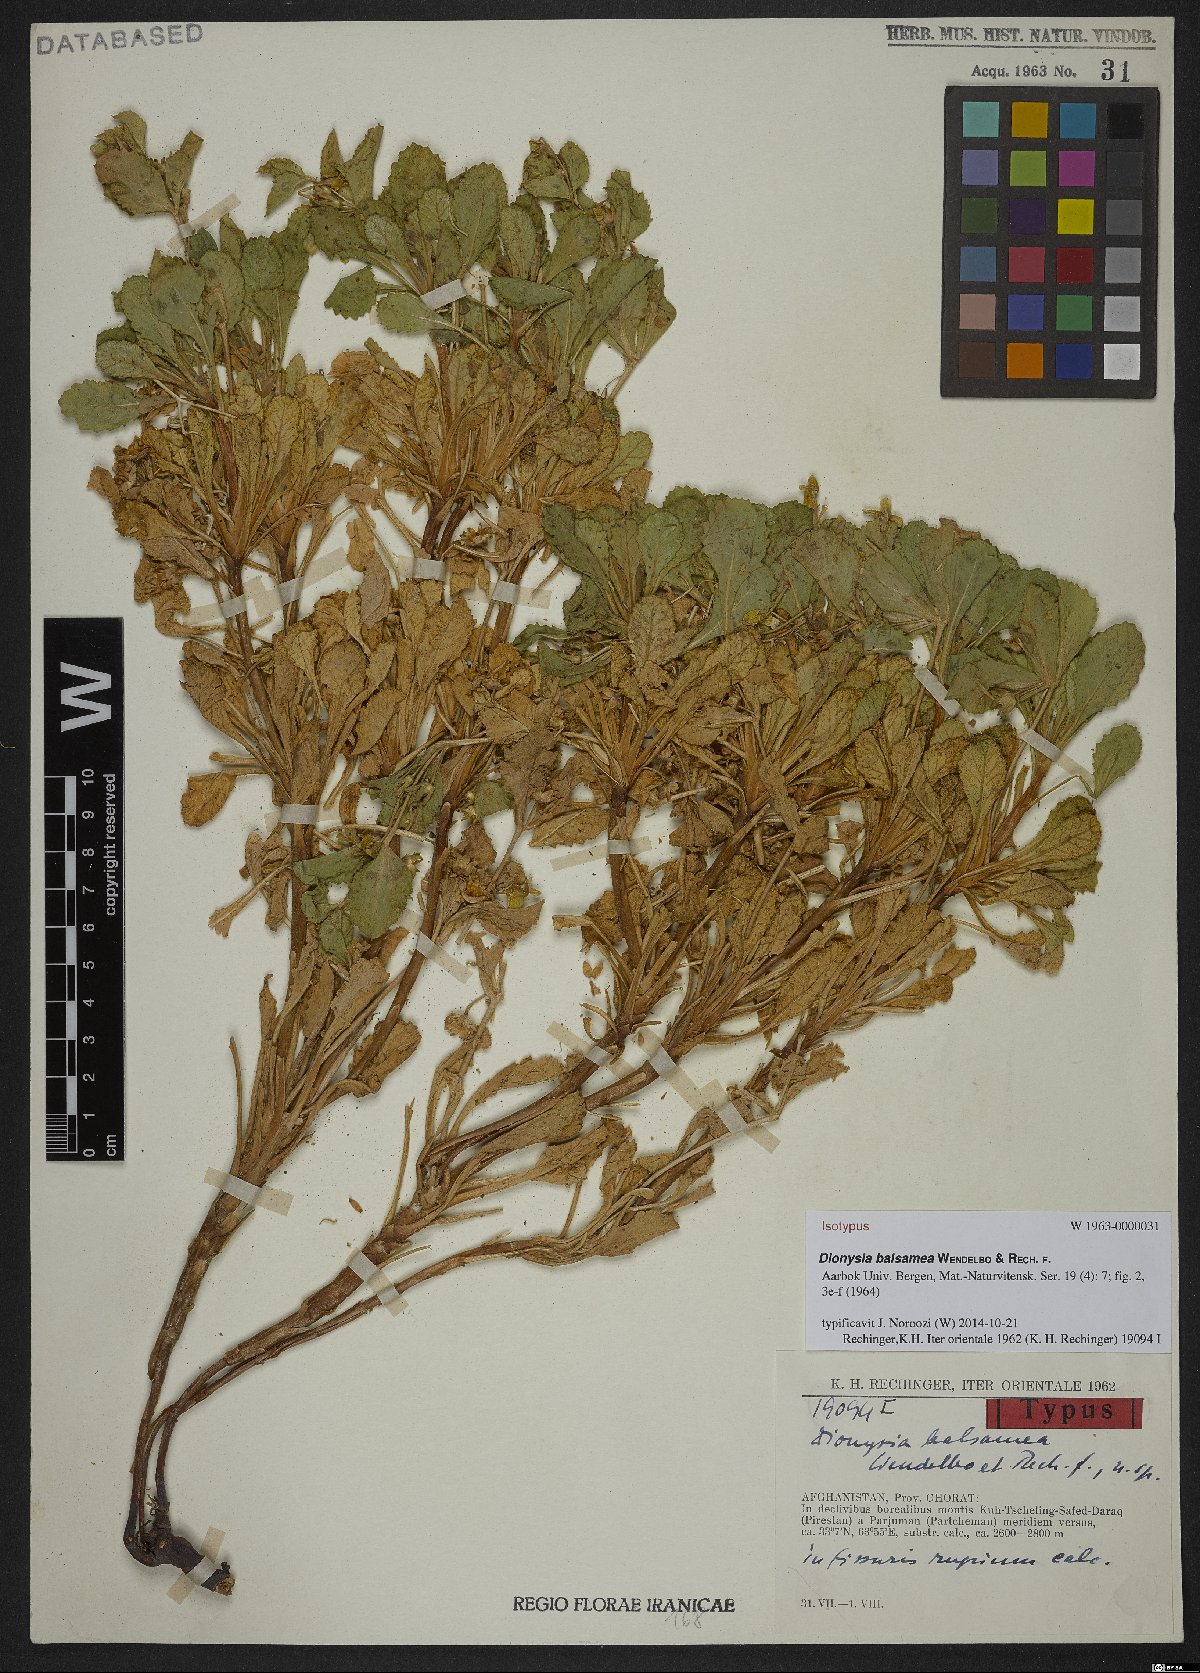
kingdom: Plantae
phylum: Tracheophyta
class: Magnoliopsida
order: Ericales
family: Primulaceae
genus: Dionysia
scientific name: Dionysia balsamea
